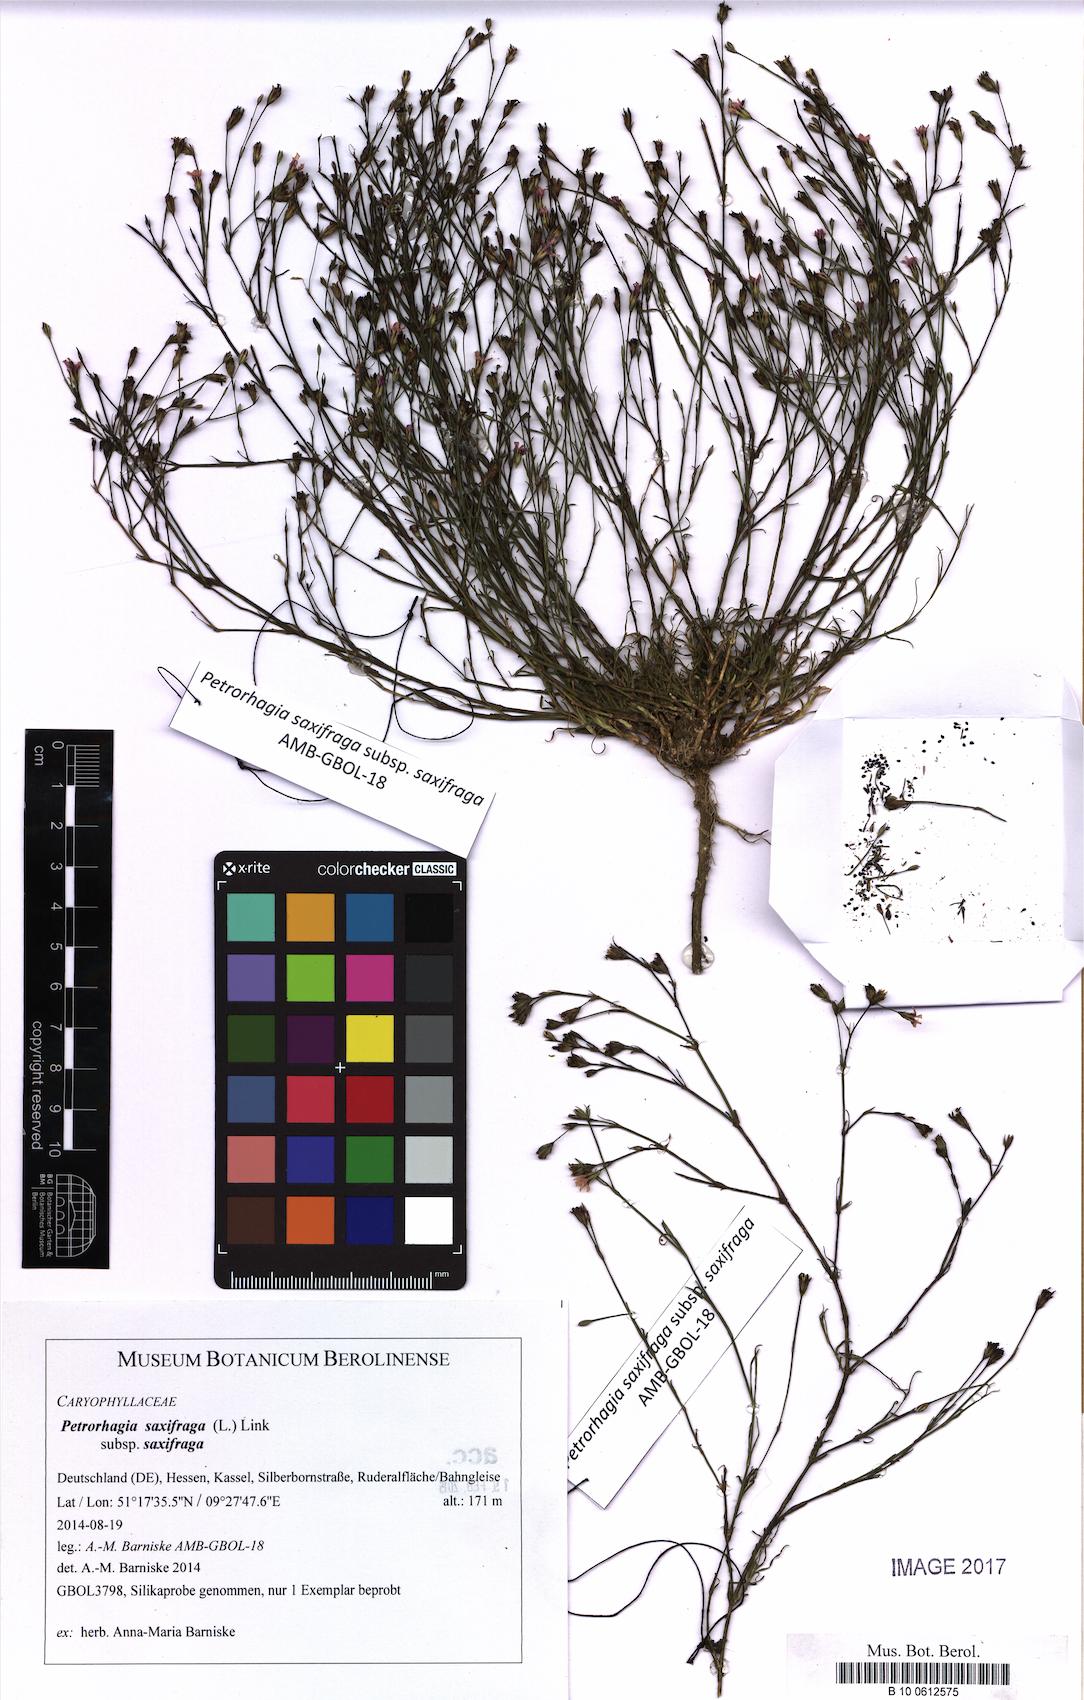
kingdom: Plantae
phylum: Tracheophyta
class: Magnoliopsida
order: Caryophyllales
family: Caryophyllaceae
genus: Petrorhagia
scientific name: Petrorhagia saxifraga
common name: Tunicflower
